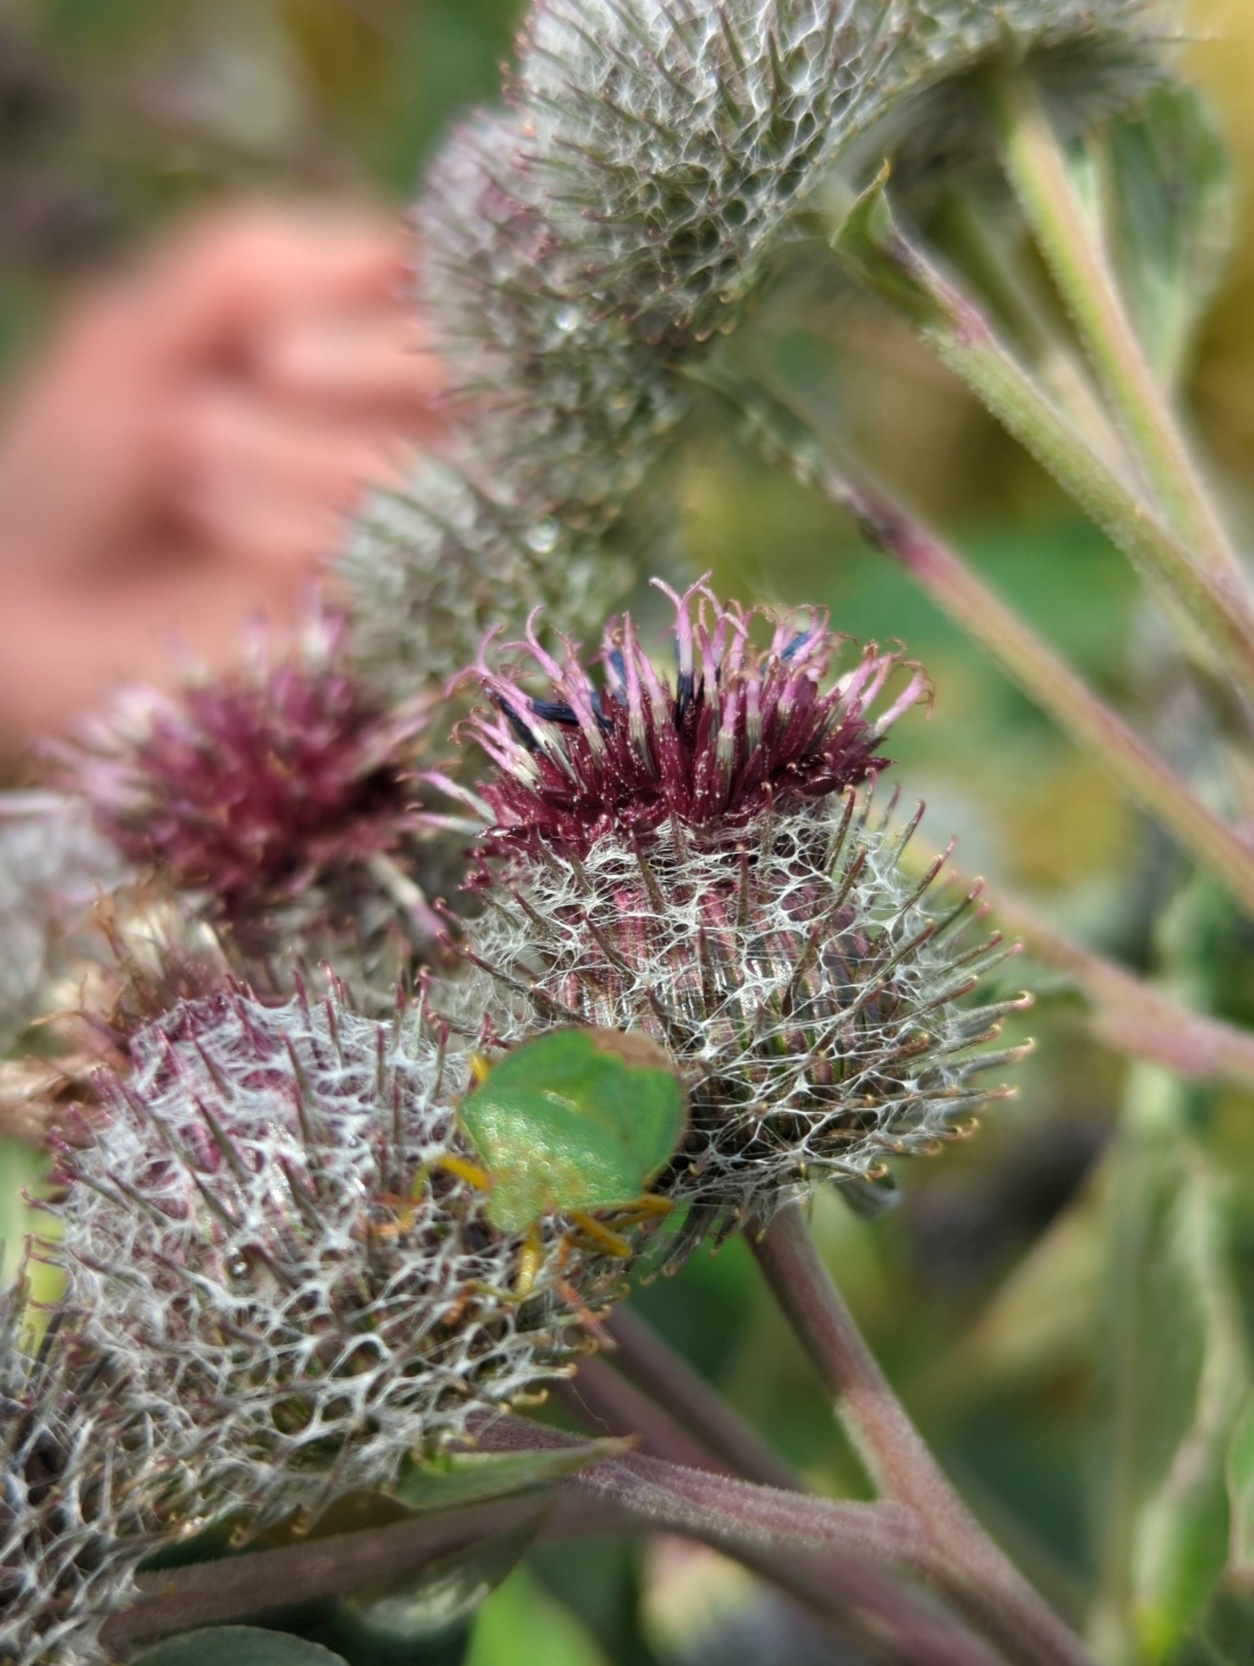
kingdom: Animalia
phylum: Arthropoda
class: Insecta
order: Hemiptera
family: Pentatomidae
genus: Palomena
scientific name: Palomena prasina
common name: Grøn bredtæge
